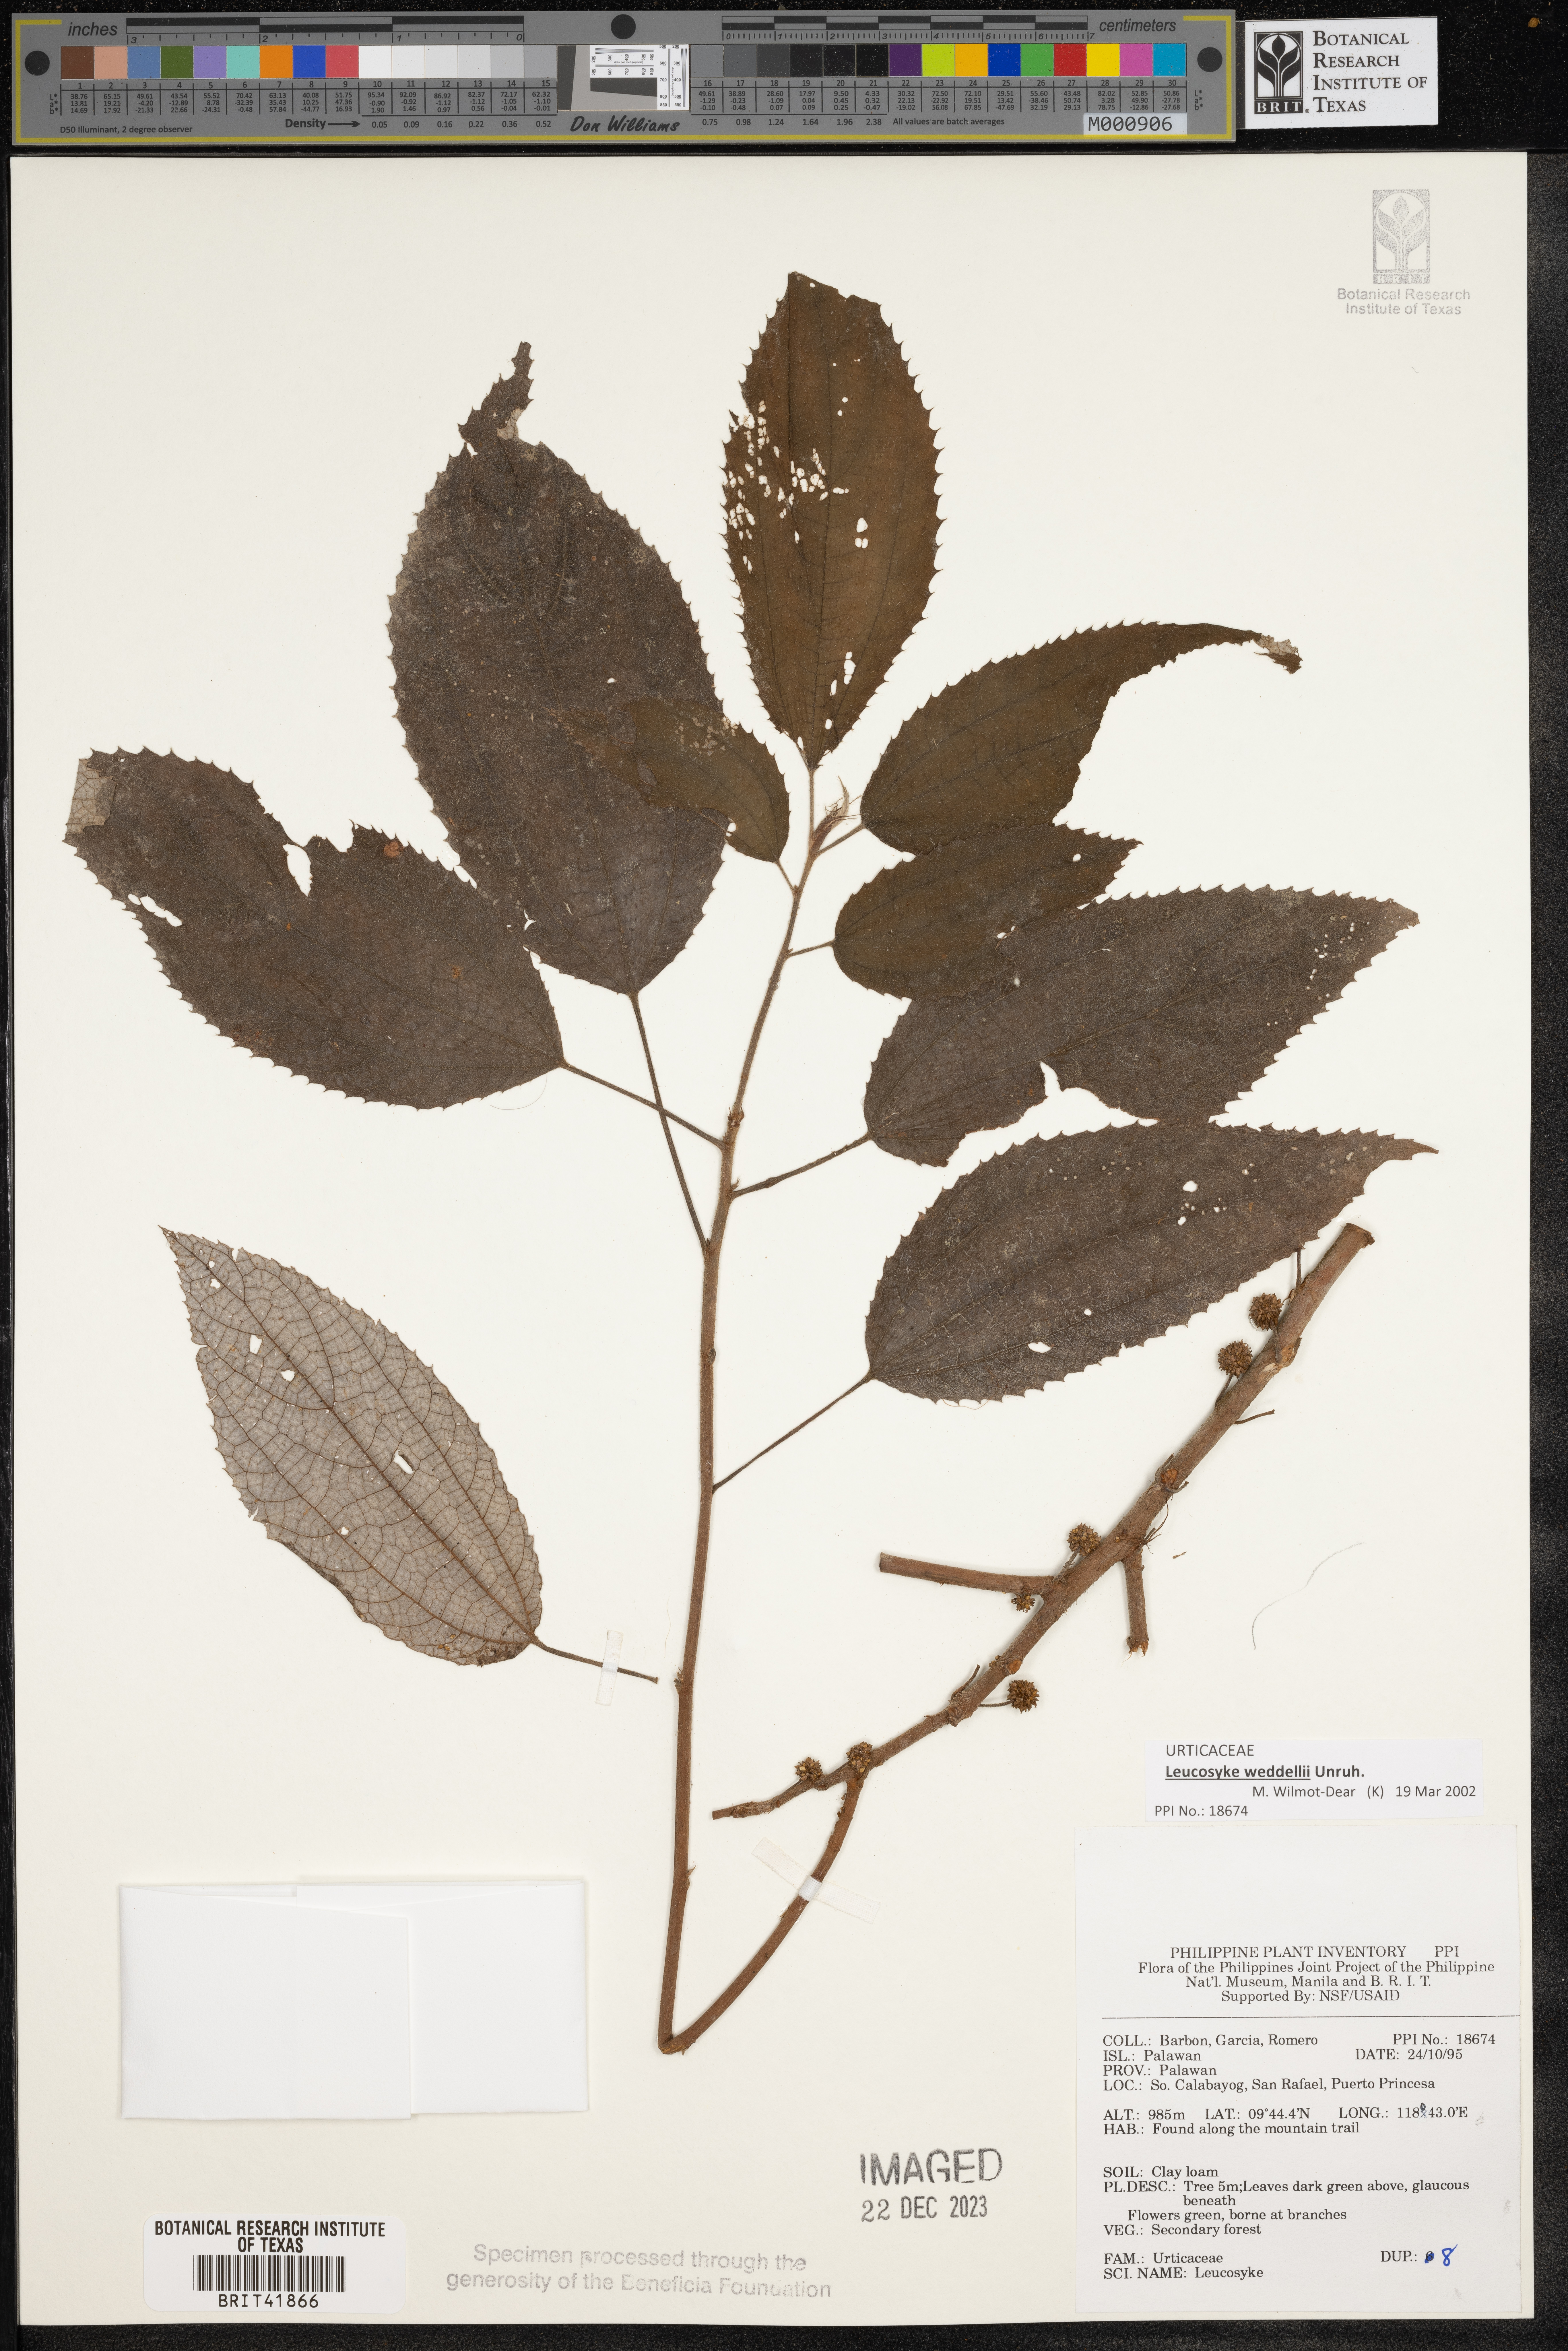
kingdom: Plantae
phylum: Tracheophyta
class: Magnoliopsida
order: Rosales
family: Urticaceae
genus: Leucosyke
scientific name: Leucosyke
